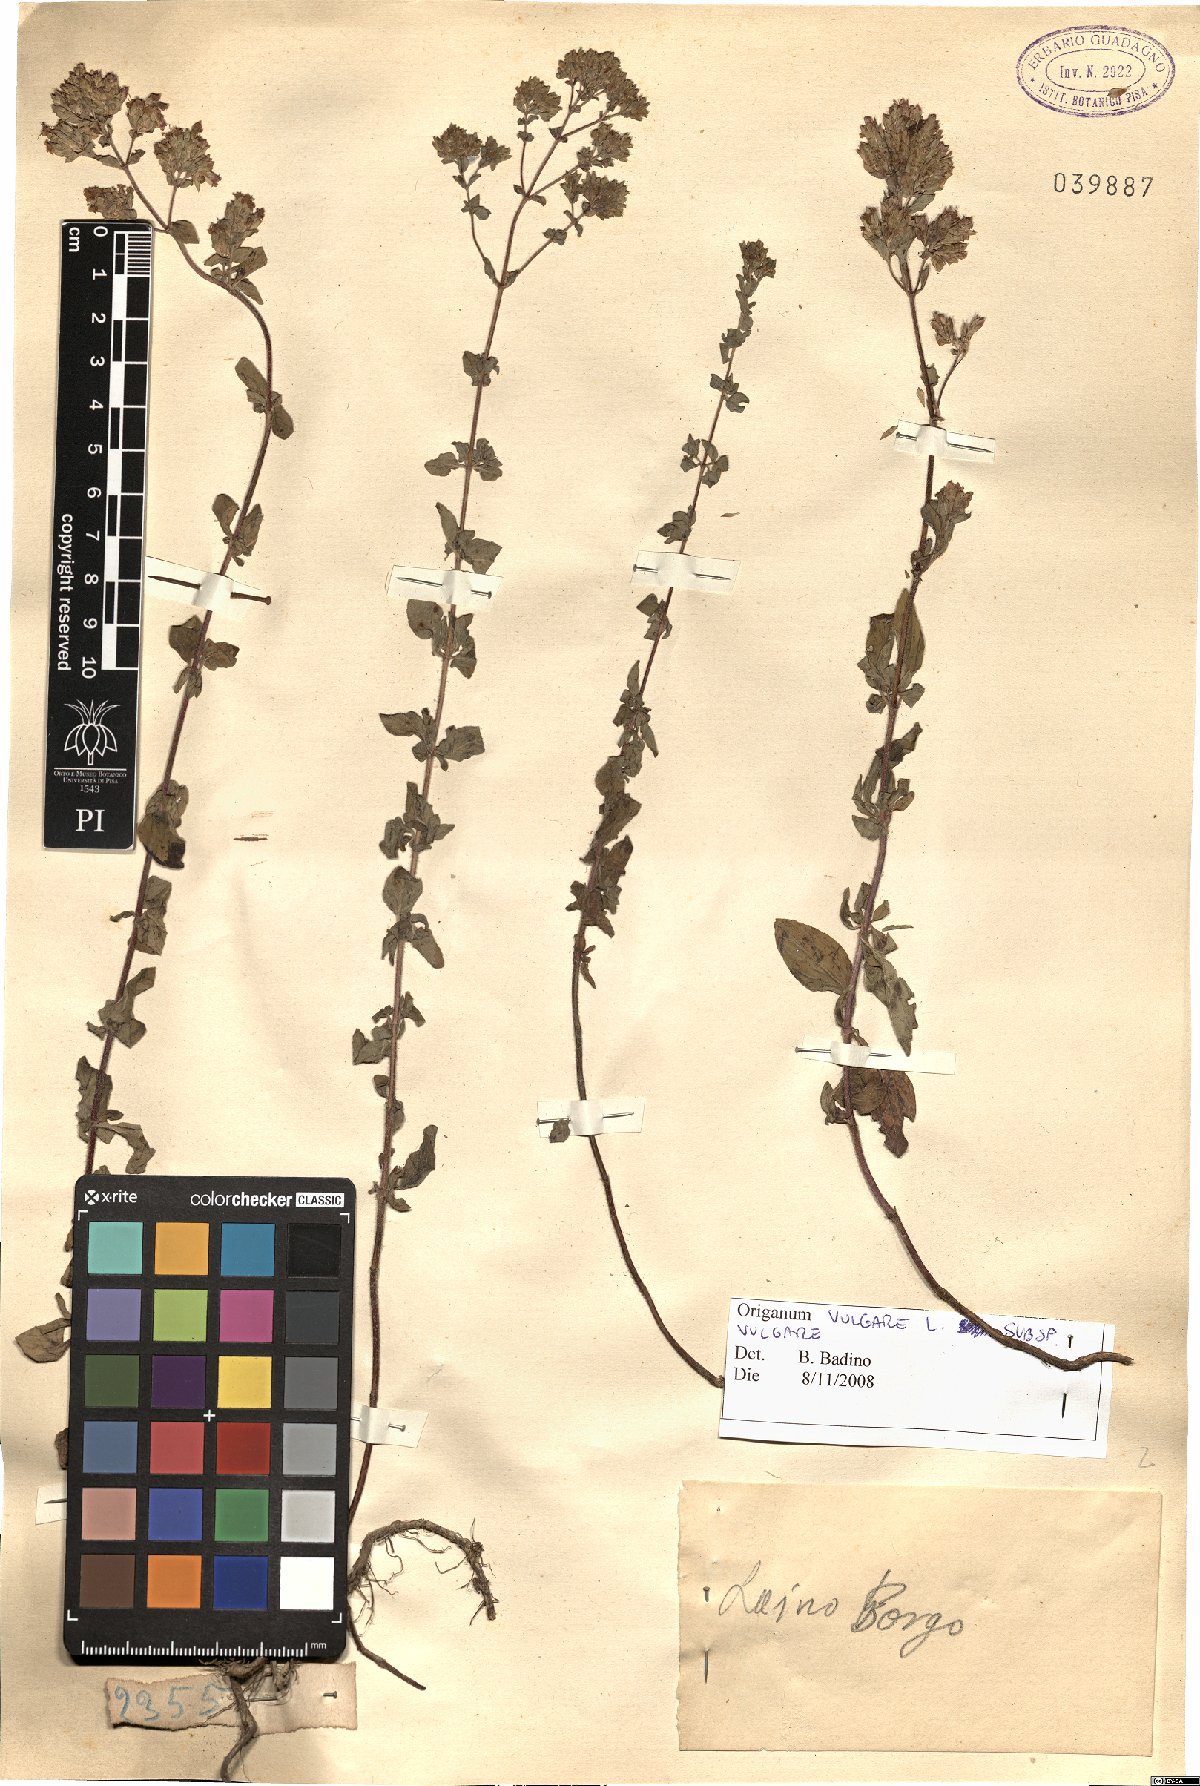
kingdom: Plantae
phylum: Tracheophyta
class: Magnoliopsida
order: Lamiales
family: Lamiaceae
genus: Origanum
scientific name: Origanum vulgare
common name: Wild marjoram
